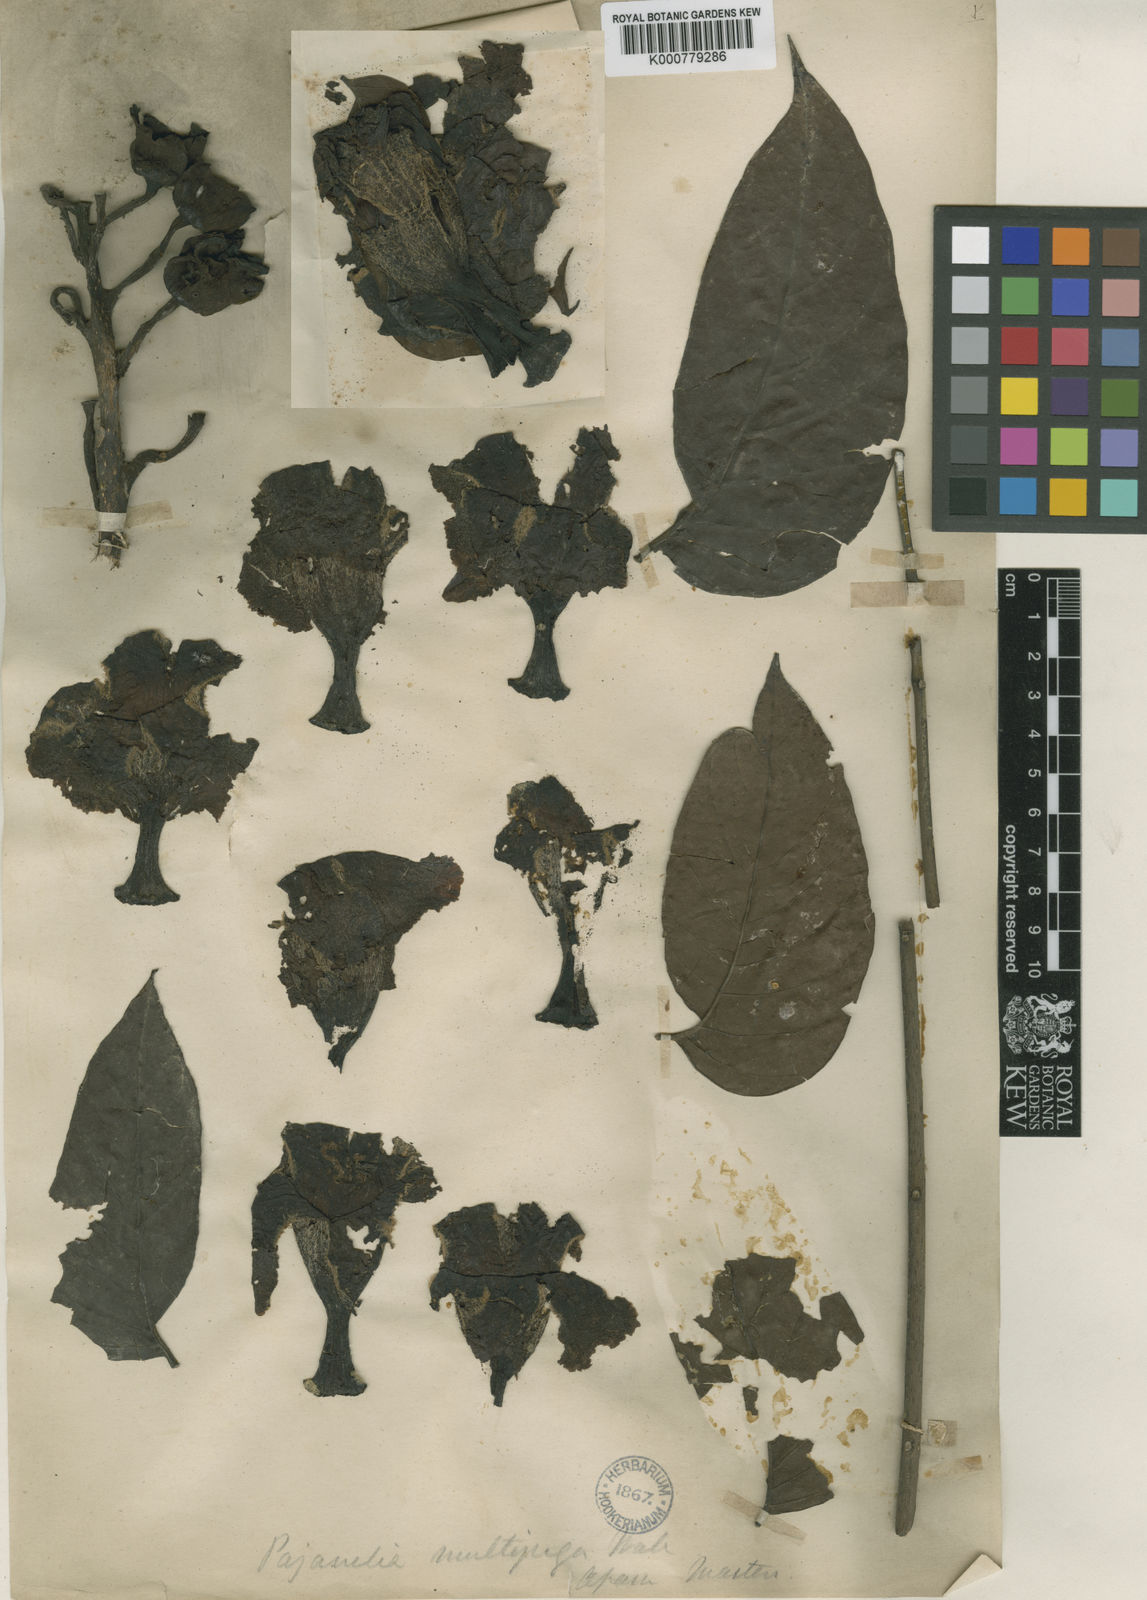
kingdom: Plantae
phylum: Tracheophyta
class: Magnoliopsida
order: Lamiales
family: Bignoniaceae
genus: Pajanelia
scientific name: Pajanelia longifolia
